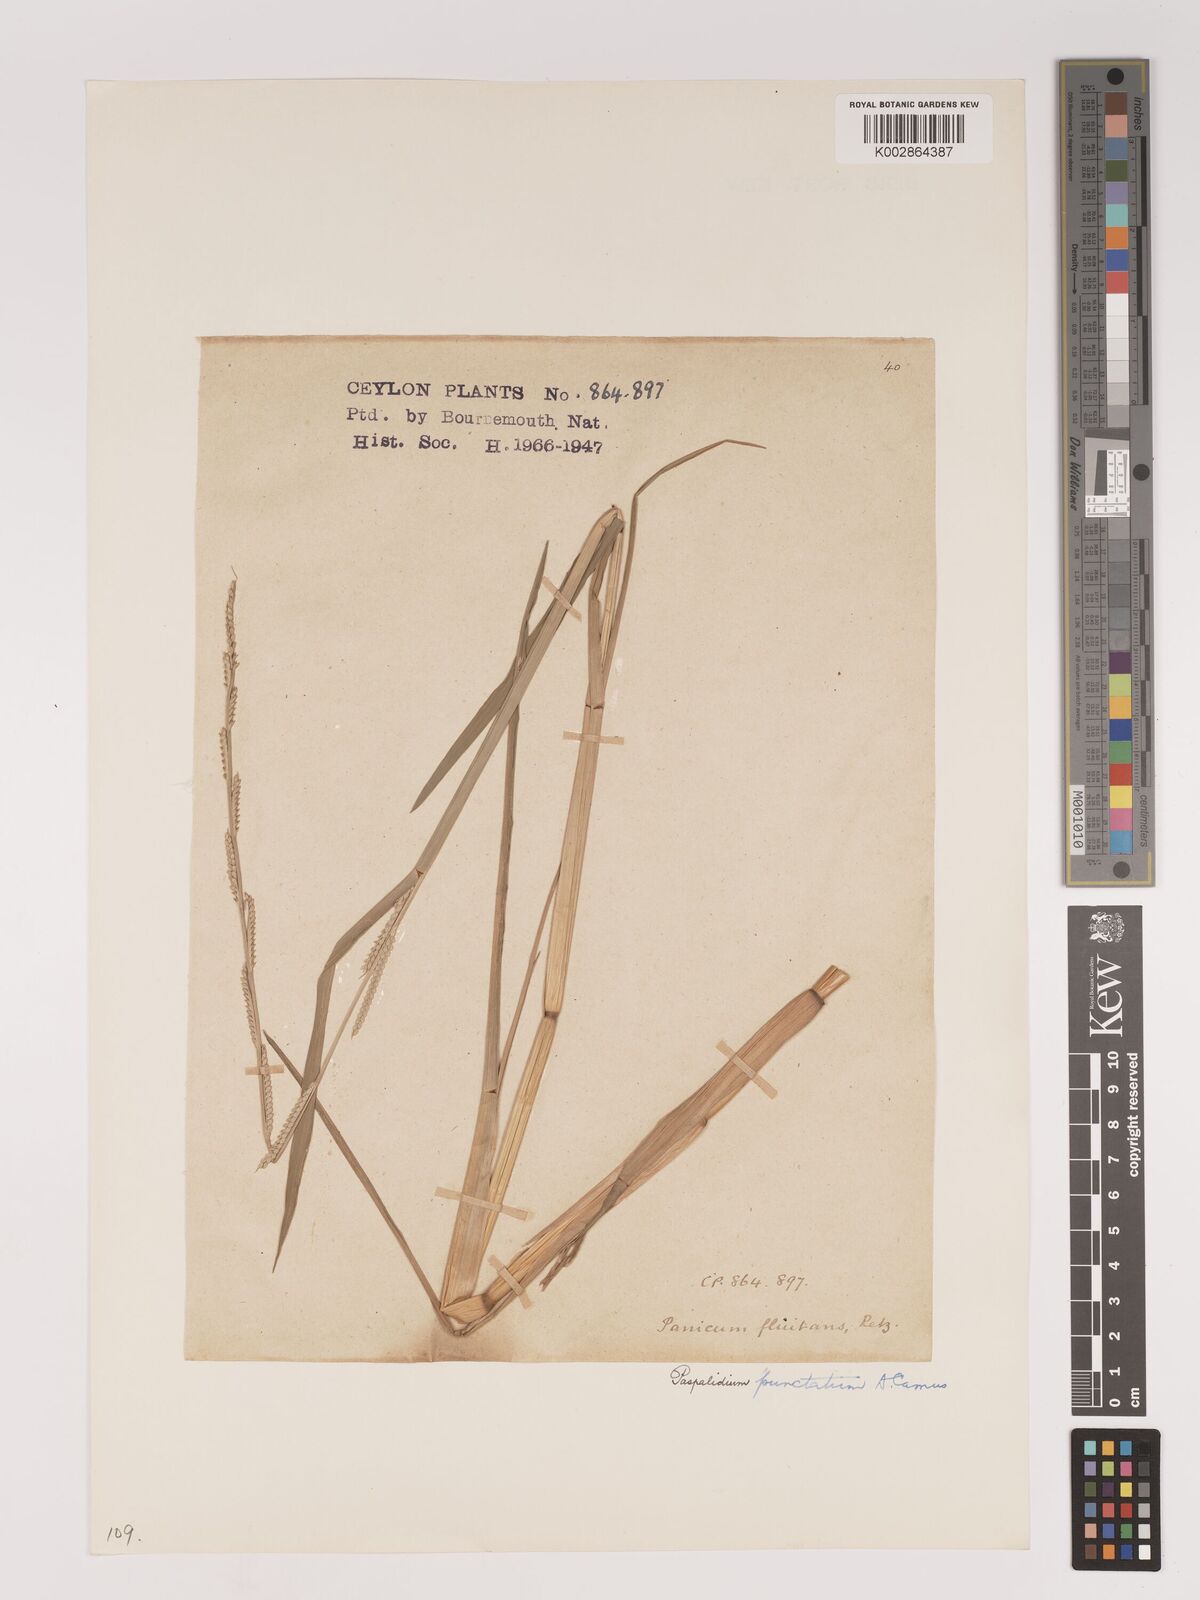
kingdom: Plantae
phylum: Tracheophyta
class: Liliopsida
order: Poales
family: Poaceae
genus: Setaria
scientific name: Setaria punctata
